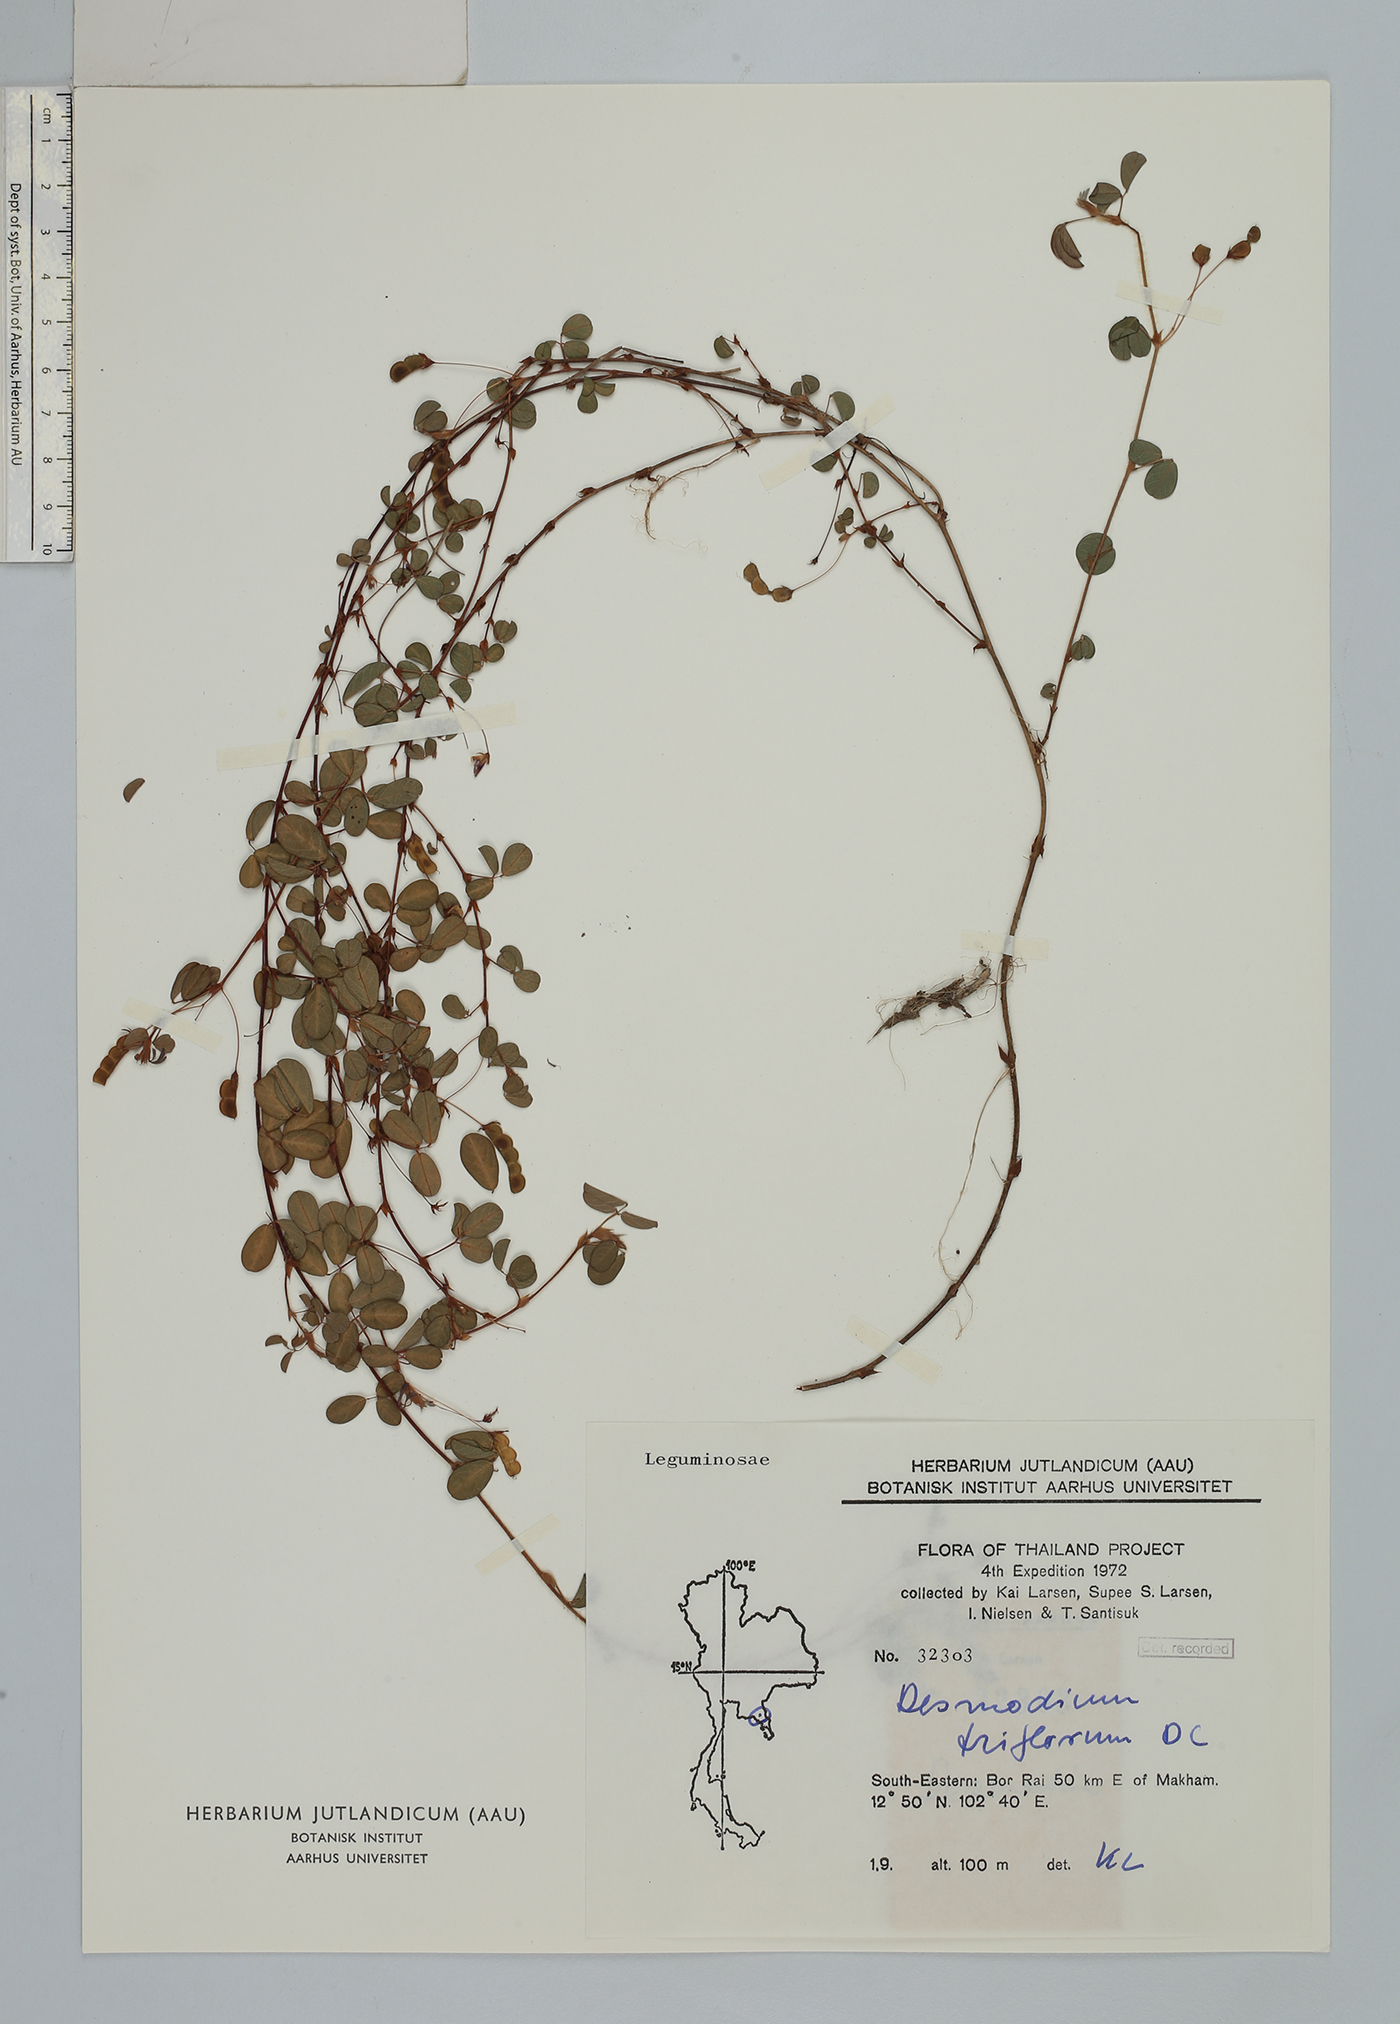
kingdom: Plantae
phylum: Tracheophyta
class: Magnoliopsida
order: Fabales
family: Fabaceae
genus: Grona
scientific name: Grona heterophylla
